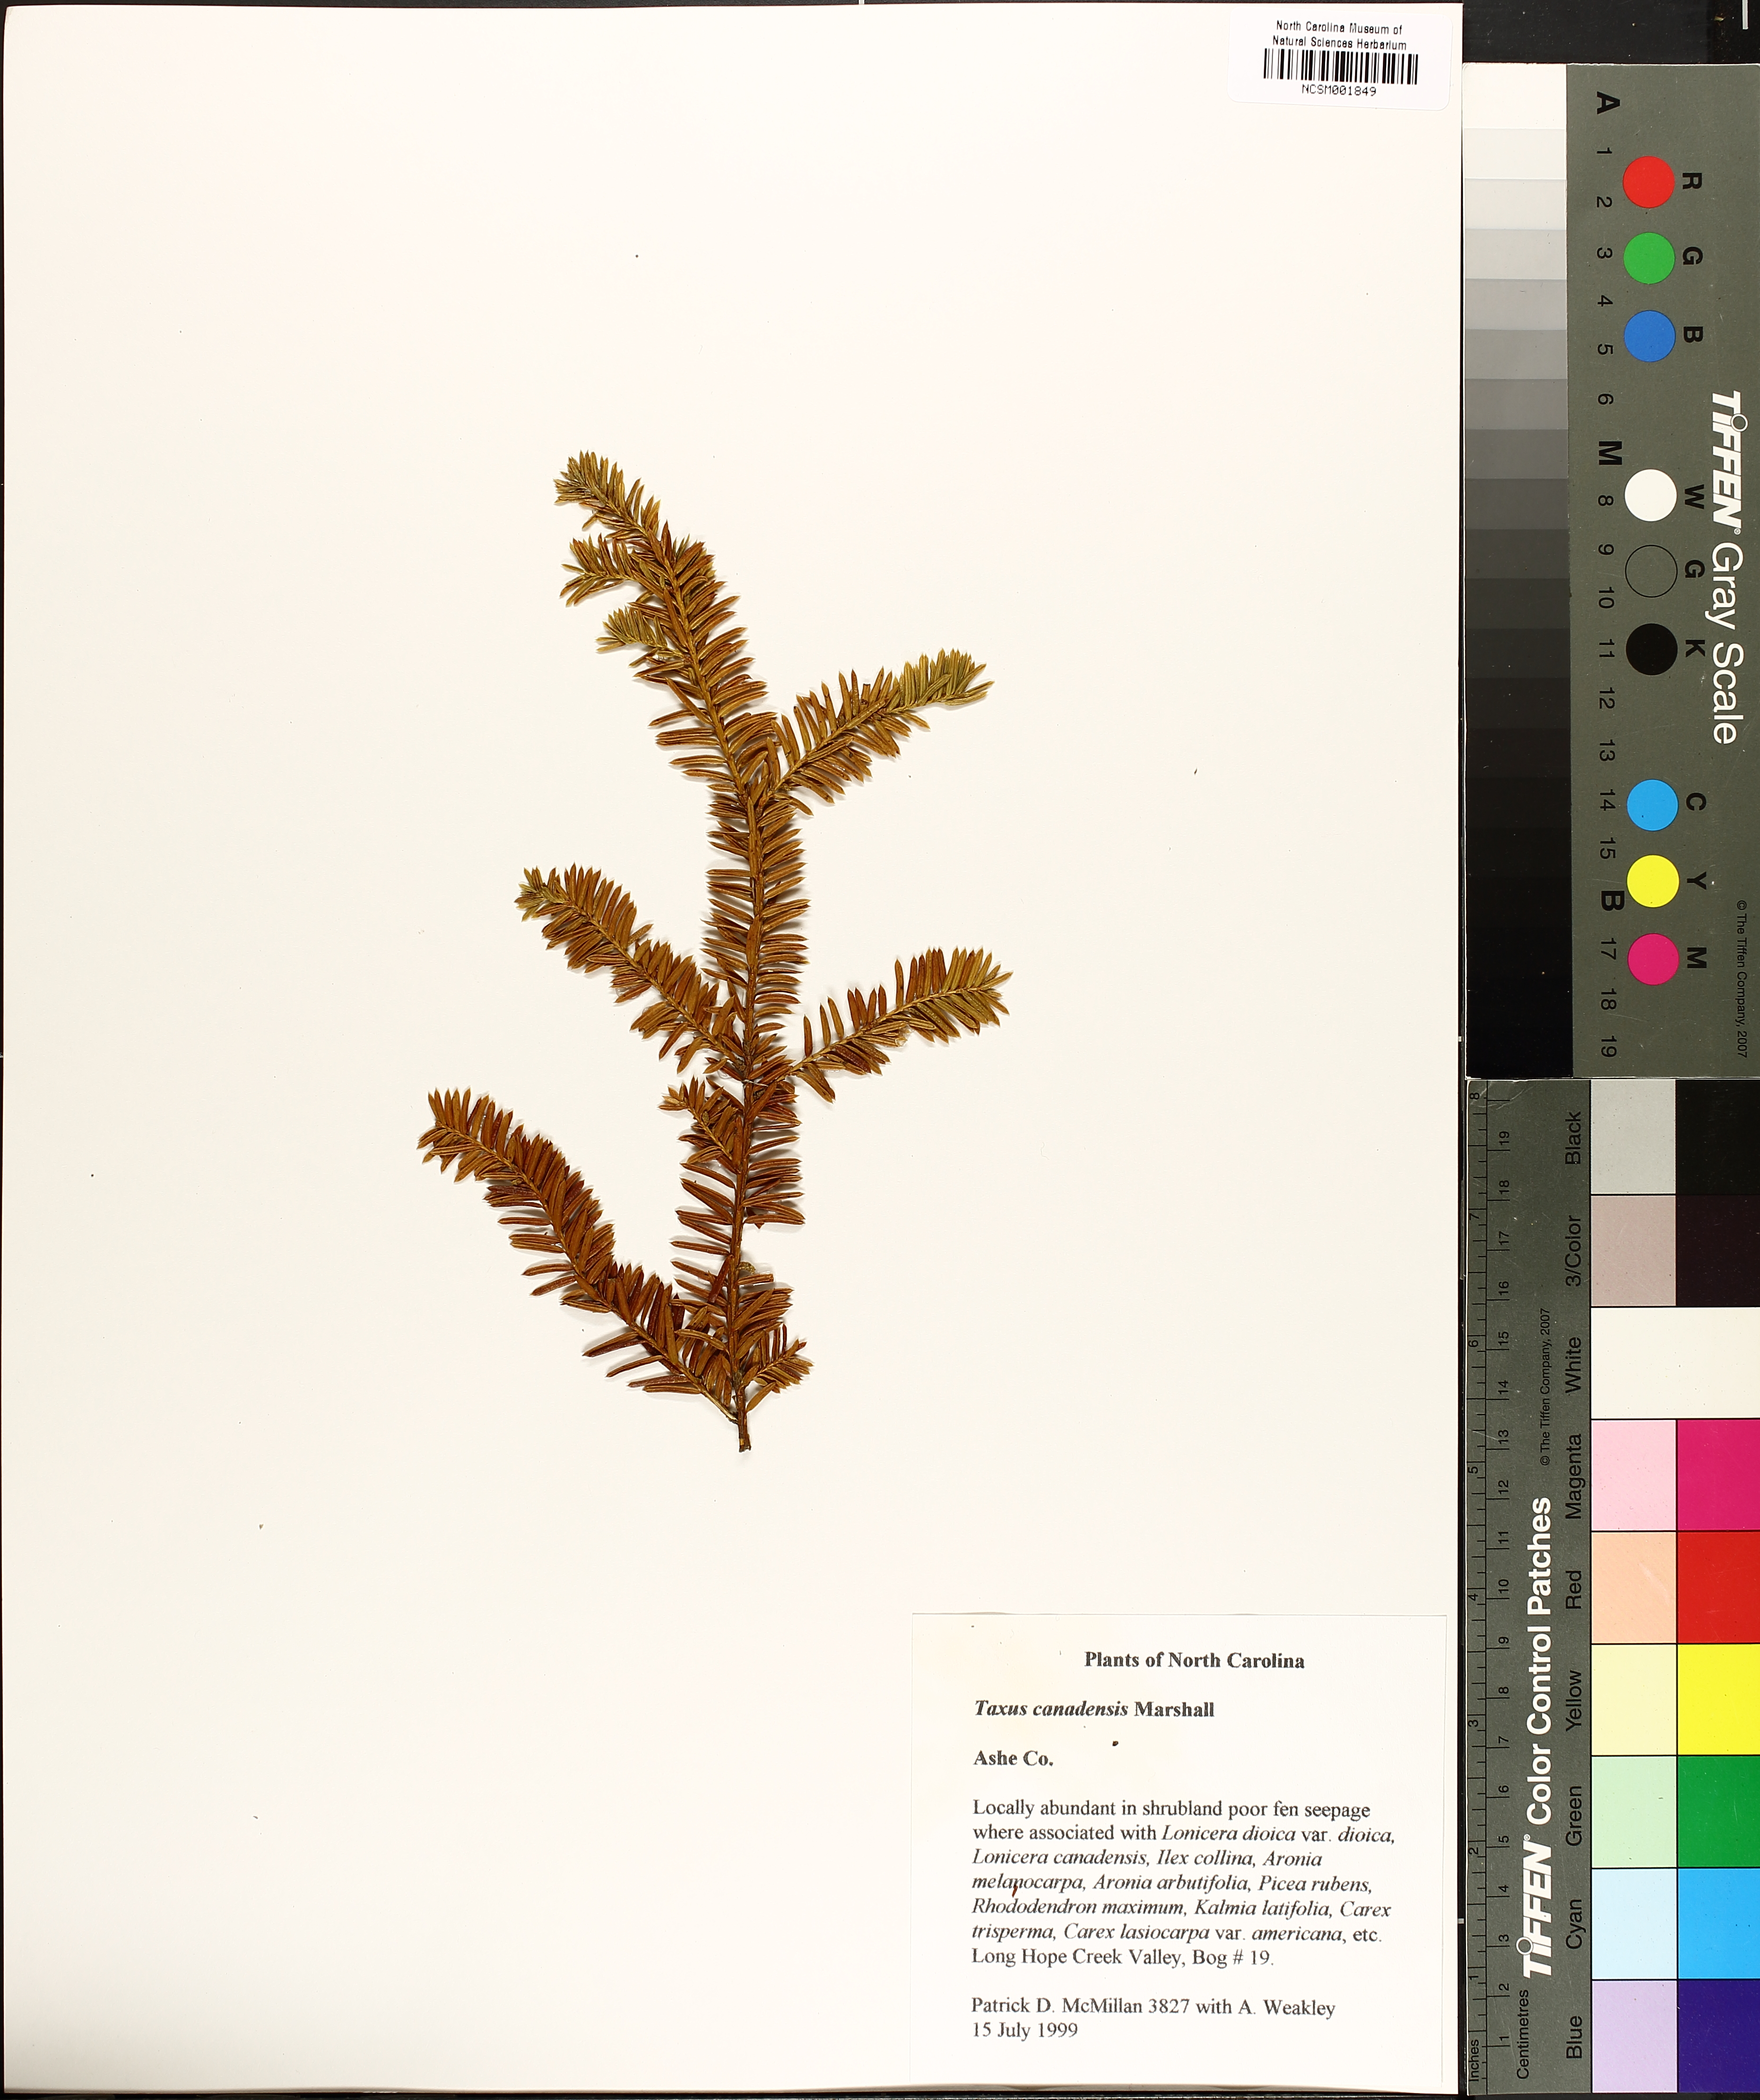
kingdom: Plantae
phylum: Tracheophyta
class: Pinopsida
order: Pinales
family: Taxaceae
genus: Taxus
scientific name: Taxus canadensis
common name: American yew
